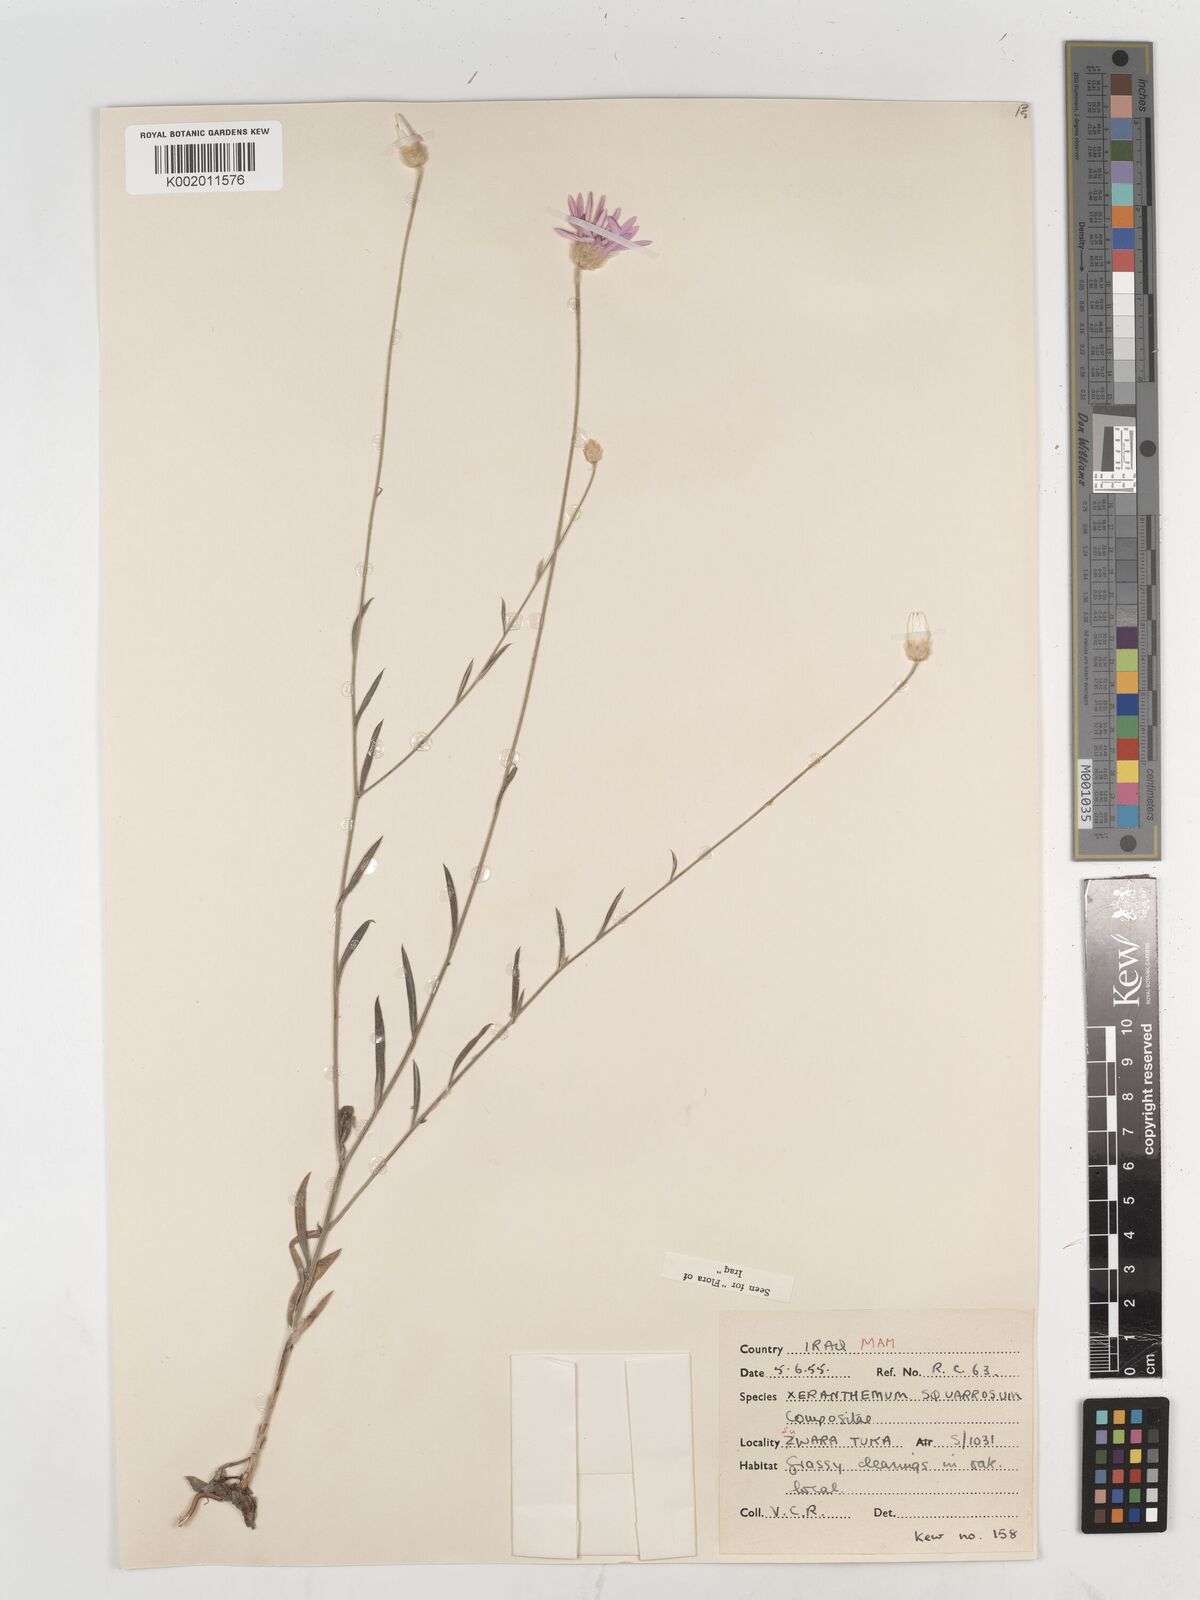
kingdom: Plantae
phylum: Tracheophyta
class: Magnoliopsida
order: Asterales
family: Asteraceae
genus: Xeranthemum
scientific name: Xeranthemum annuum
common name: Immortelle
